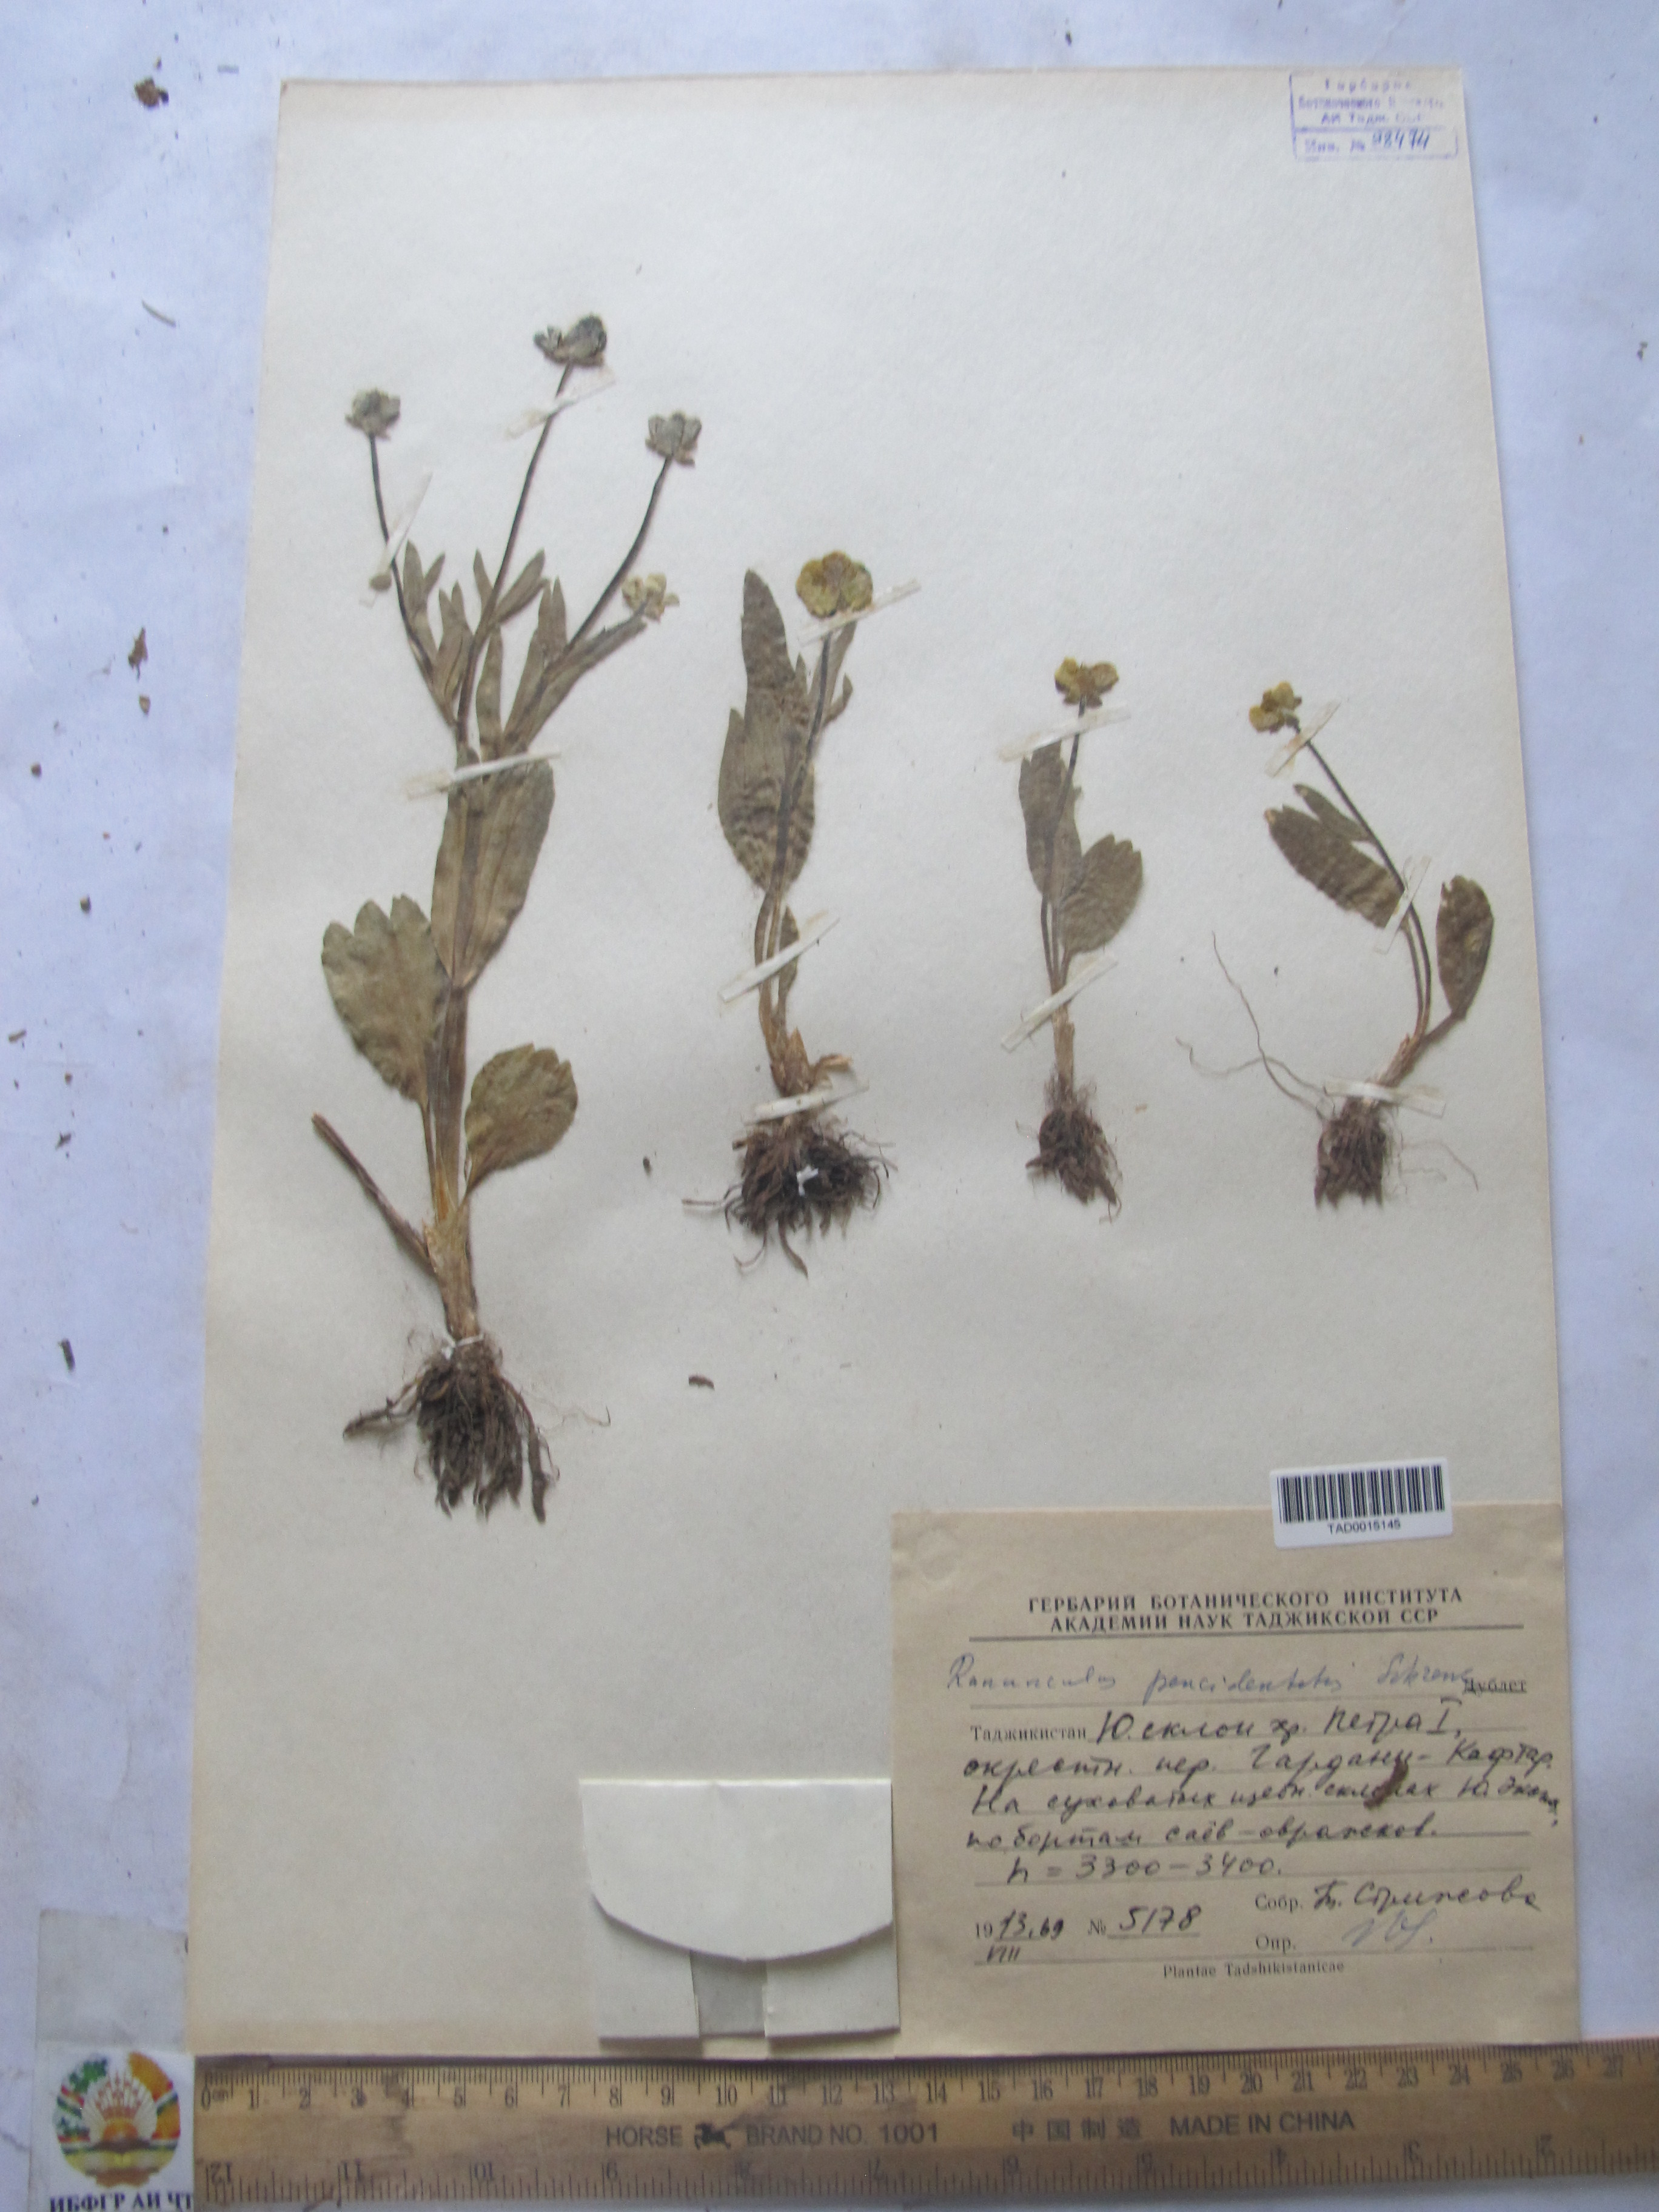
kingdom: Plantae
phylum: Tracheophyta
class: Magnoliopsida
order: Ranunculales
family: Ranunculaceae
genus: Ranunculus
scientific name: Ranunculus paucidentatus
